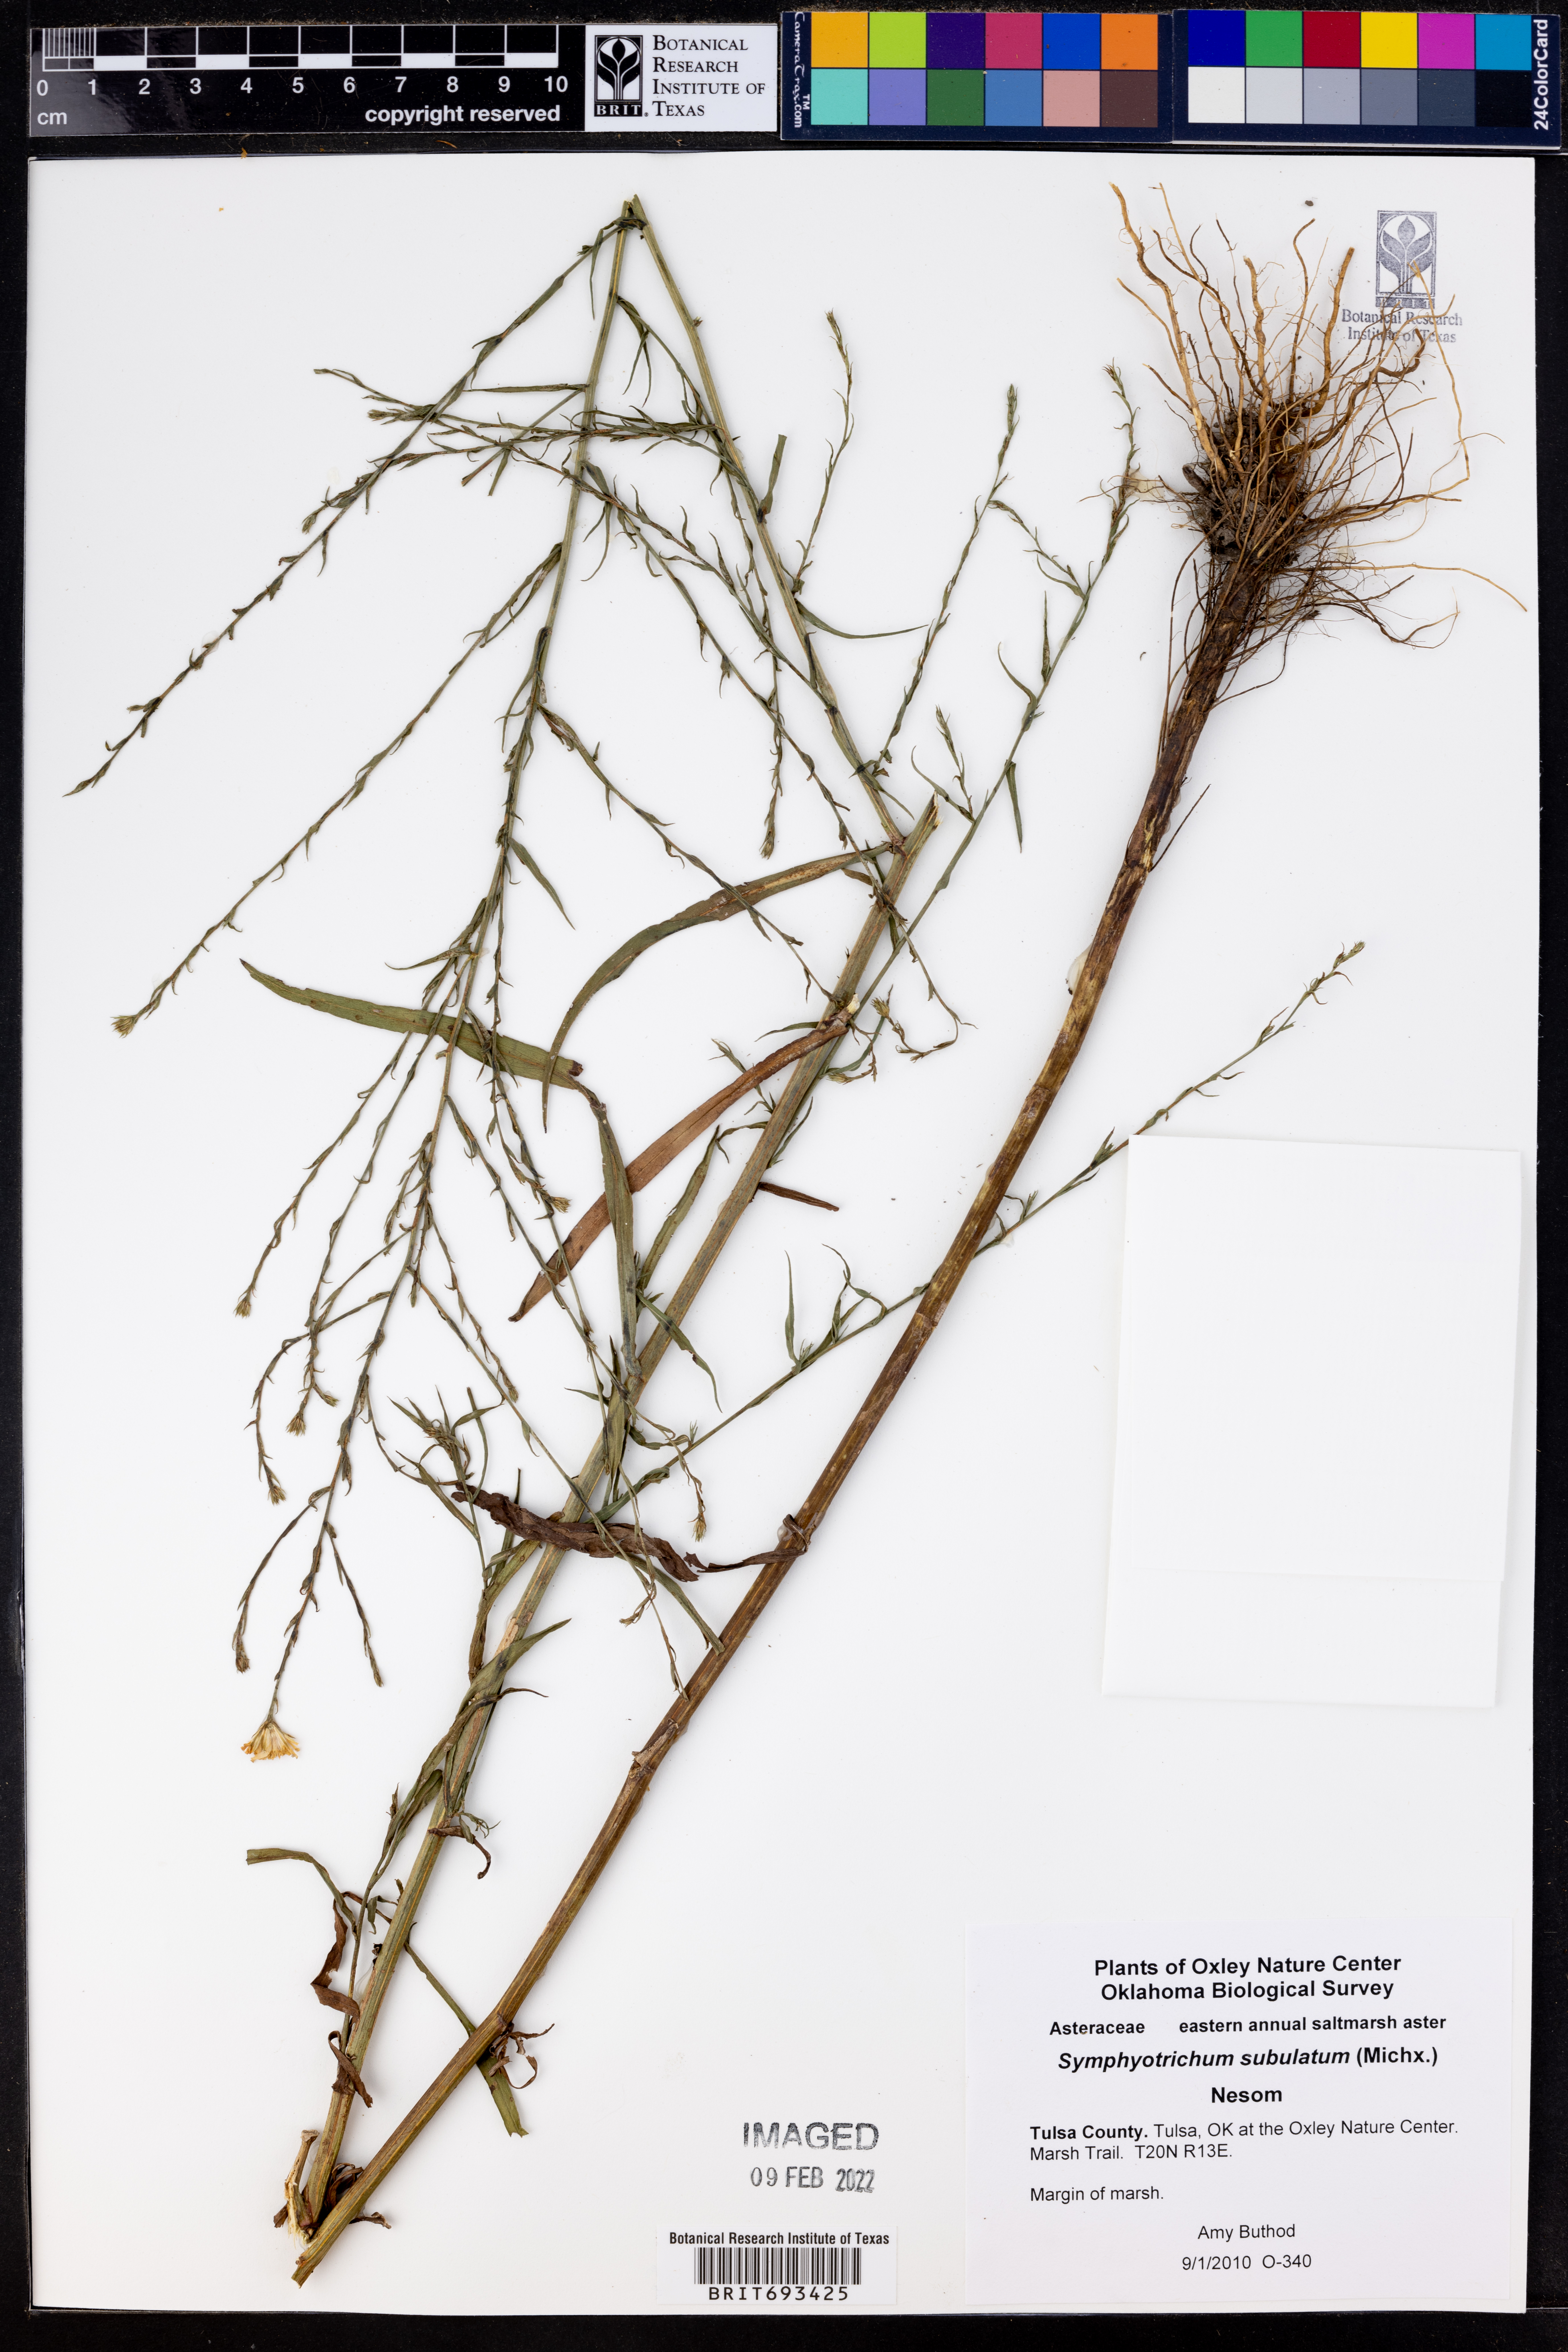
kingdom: Plantae
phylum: Tracheophyta
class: Magnoliopsida
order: Asterales
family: Asteraceae
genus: Symphyotrichum
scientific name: Symphyotrichum subulatum
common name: Annual saltmarsh aster
